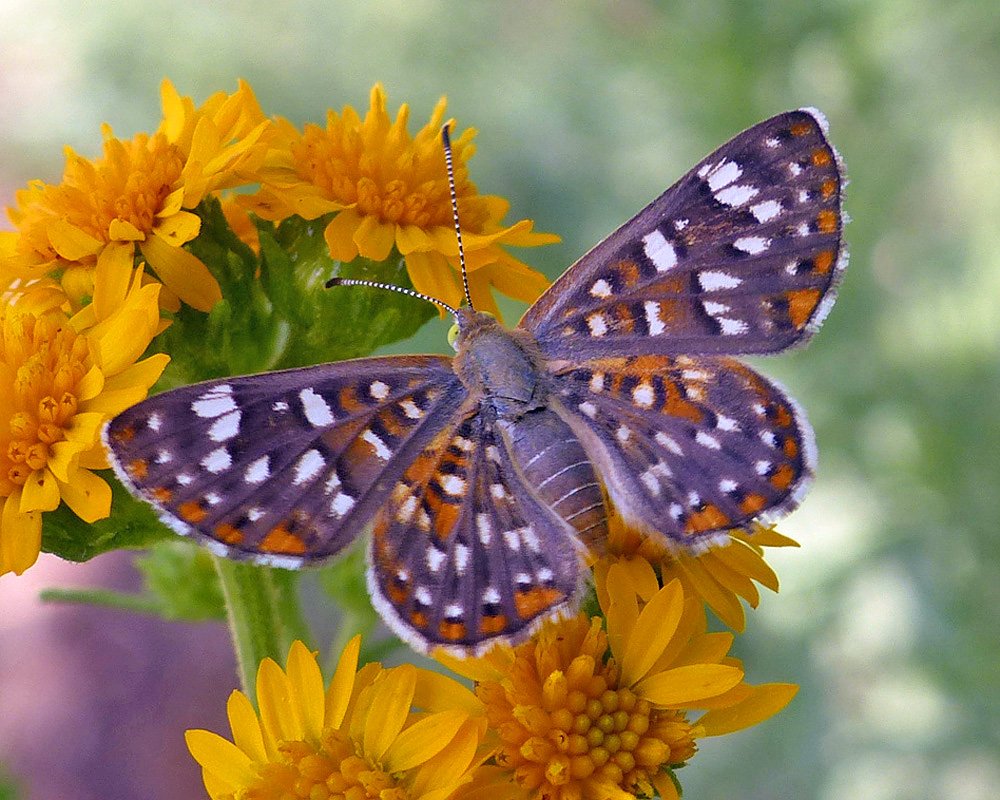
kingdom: Animalia
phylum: Arthropoda
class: Insecta
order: Lepidoptera
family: Riodinidae
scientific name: Riodinidae
